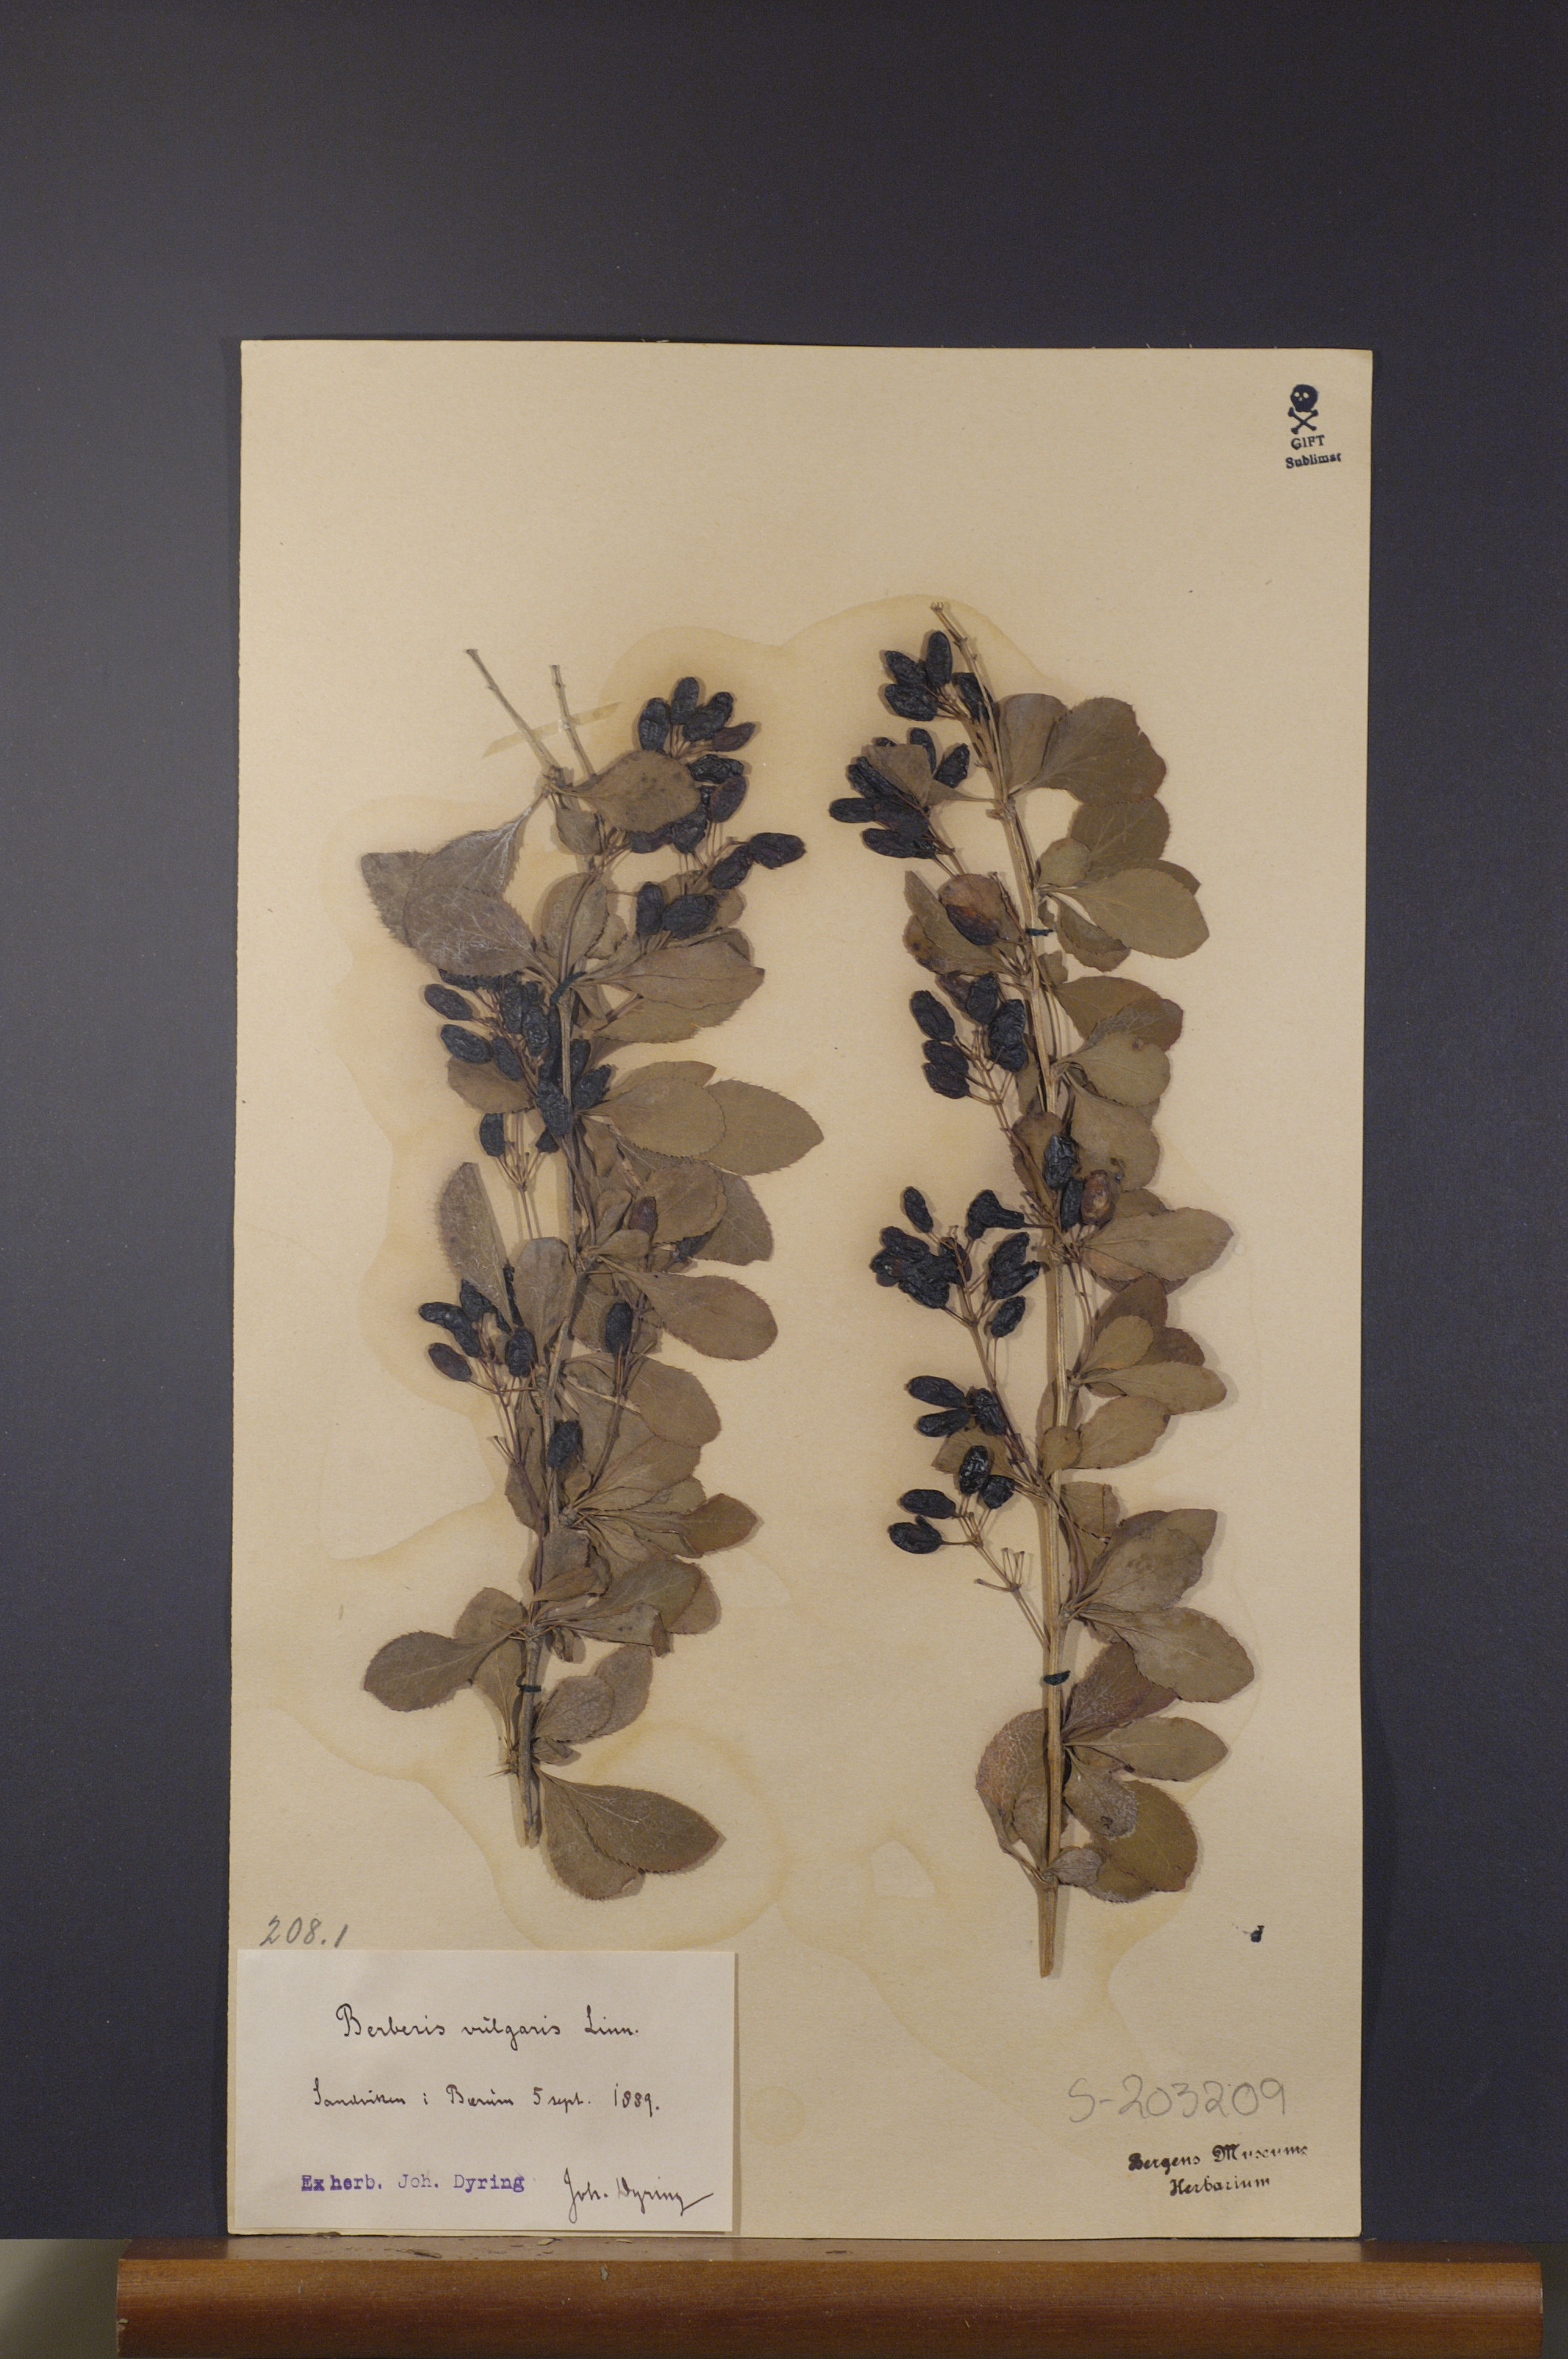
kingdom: Plantae
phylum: Tracheophyta
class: Magnoliopsida
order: Ranunculales
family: Berberidaceae
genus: Berberis
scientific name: Berberis vulgaris
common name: Barberry
